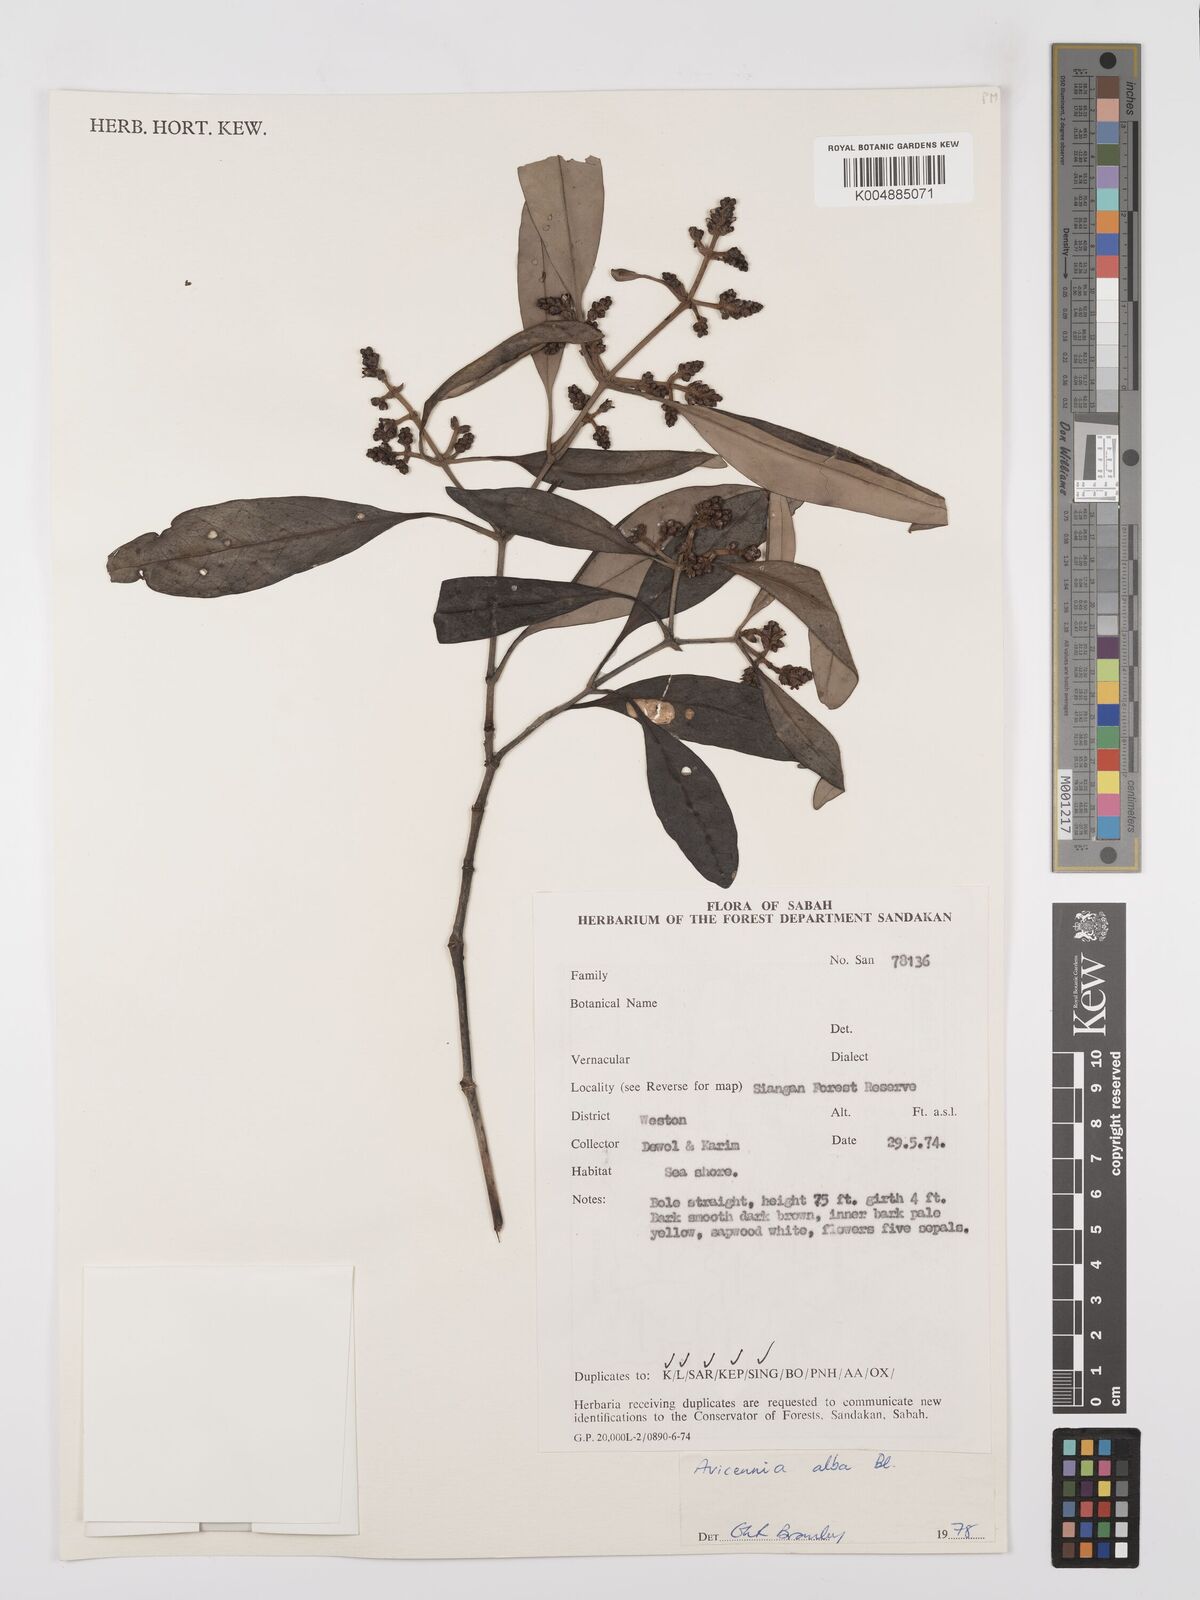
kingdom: Plantae
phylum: Tracheophyta
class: Magnoliopsida
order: Lamiales
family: Acanthaceae
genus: Avicennia
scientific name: Avicennia alba
